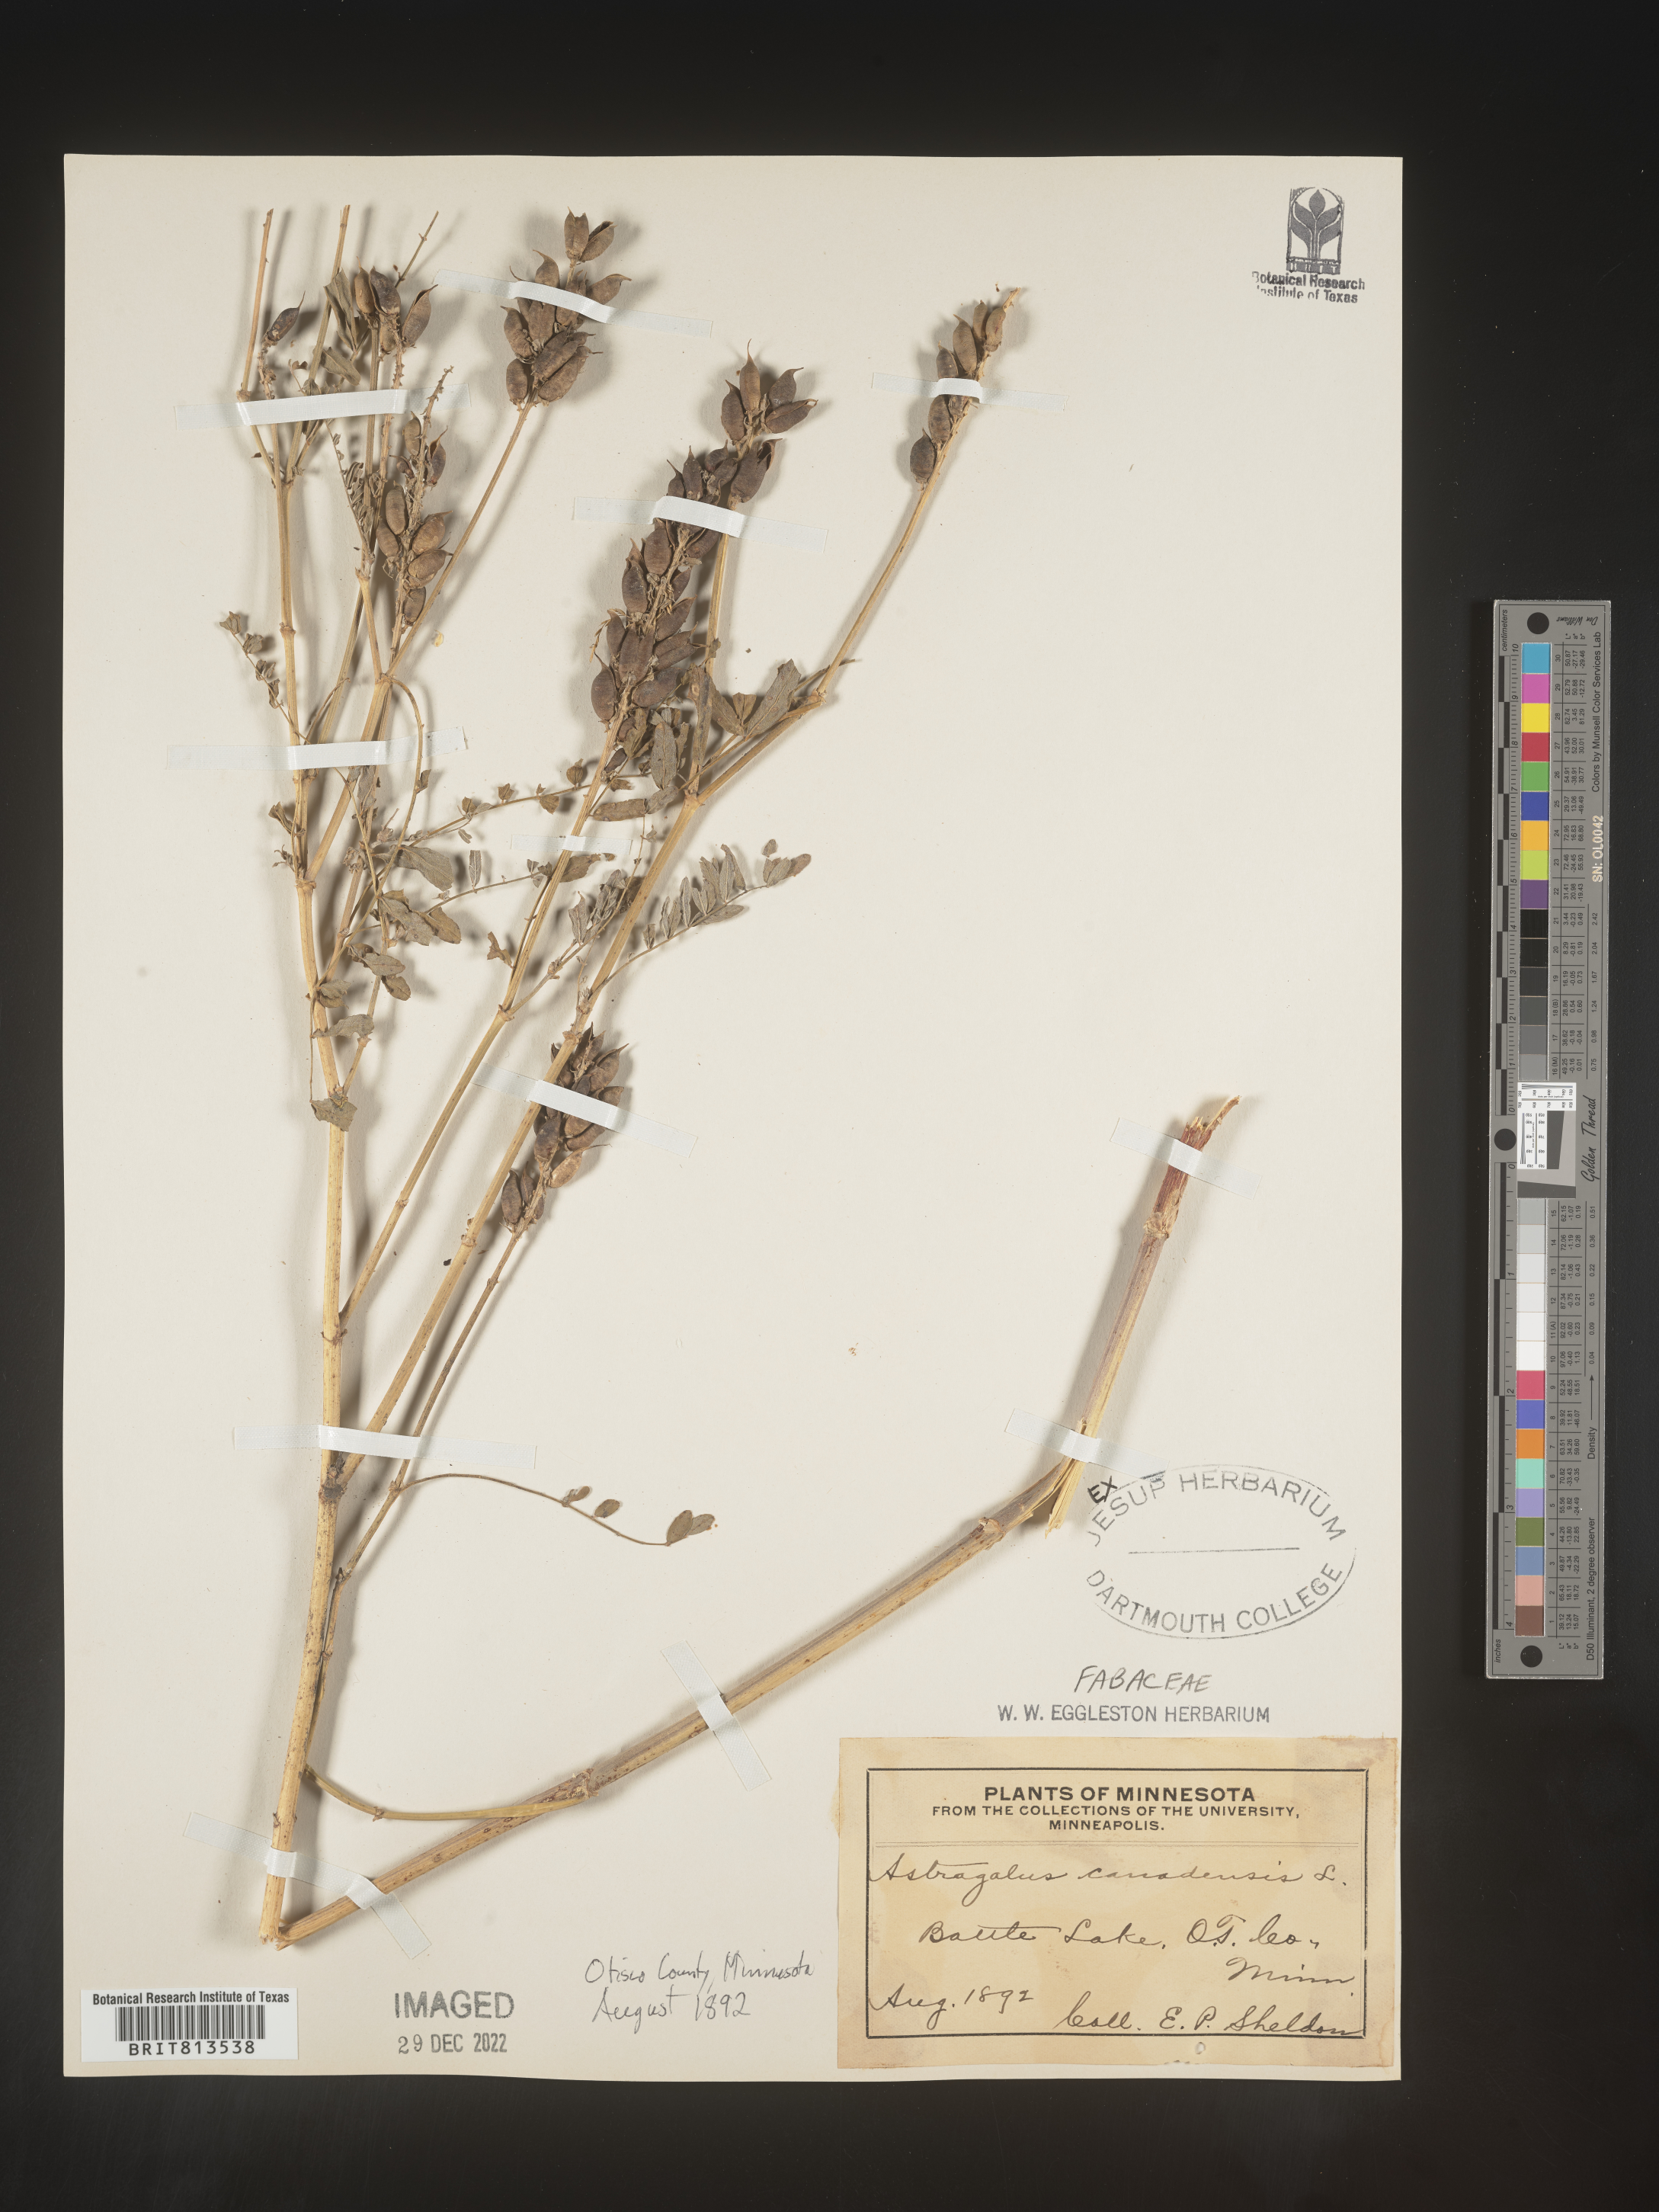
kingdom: Plantae
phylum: Tracheophyta
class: Magnoliopsida
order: Fabales
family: Fabaceae
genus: Astragalus
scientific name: Astragalus canadensis
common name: Canada milk-vetch
